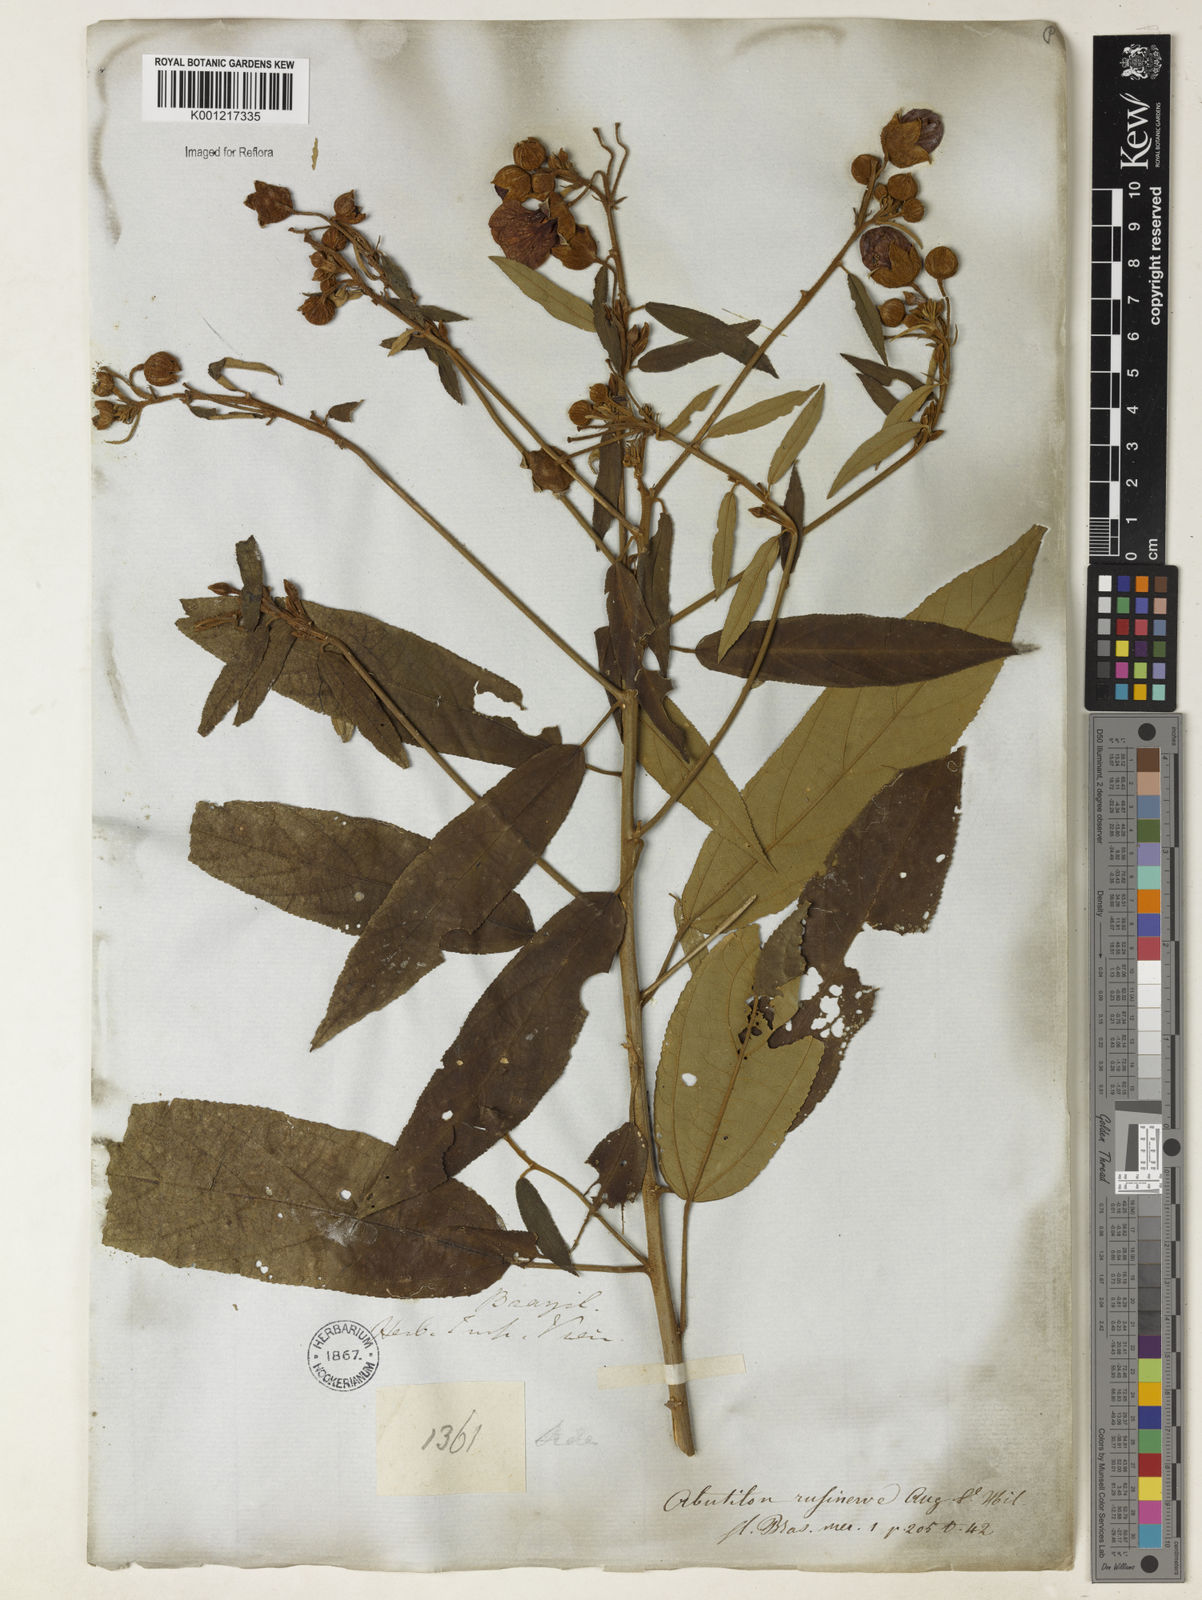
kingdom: Plantae
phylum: Tracheophyta
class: Magnoliopsida
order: Malvales
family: Malvaceae
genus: Callianthe
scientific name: Callianthe rufinerva
